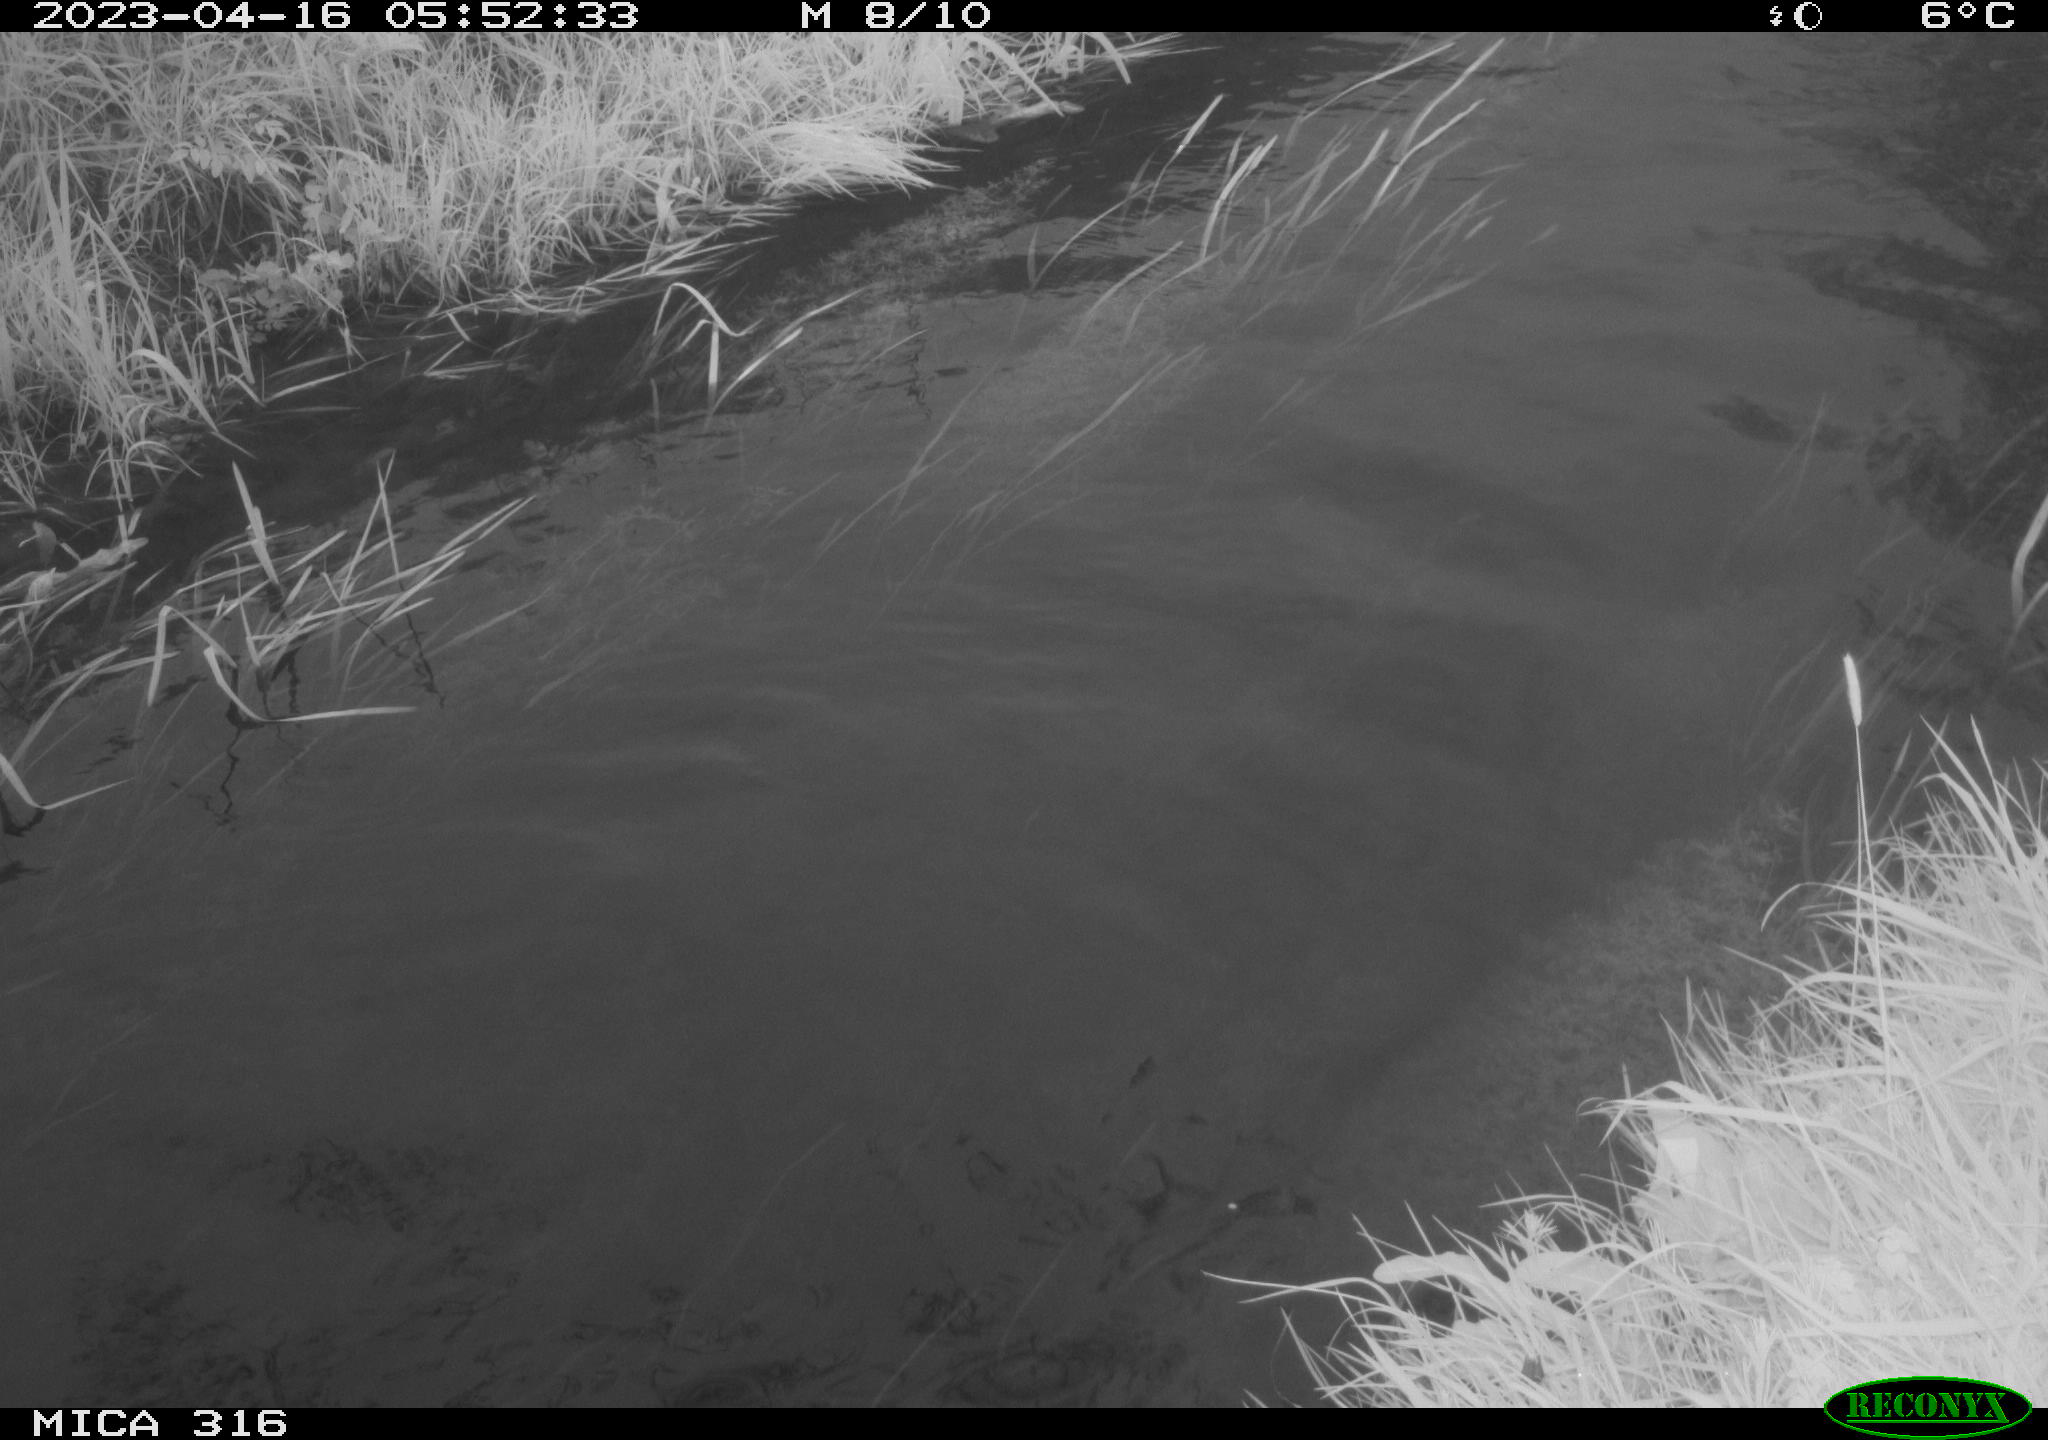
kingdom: Animalia
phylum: Chordata
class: Aves
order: Anseriformes
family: Anatidae
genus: Anas
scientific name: Anas
